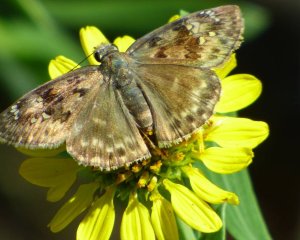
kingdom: Animalia
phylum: Arthropoda
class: Insecta
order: Lepidoptera
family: Hesperiidae
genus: Gesta
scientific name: Gesta
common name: Horace's Duskywing
